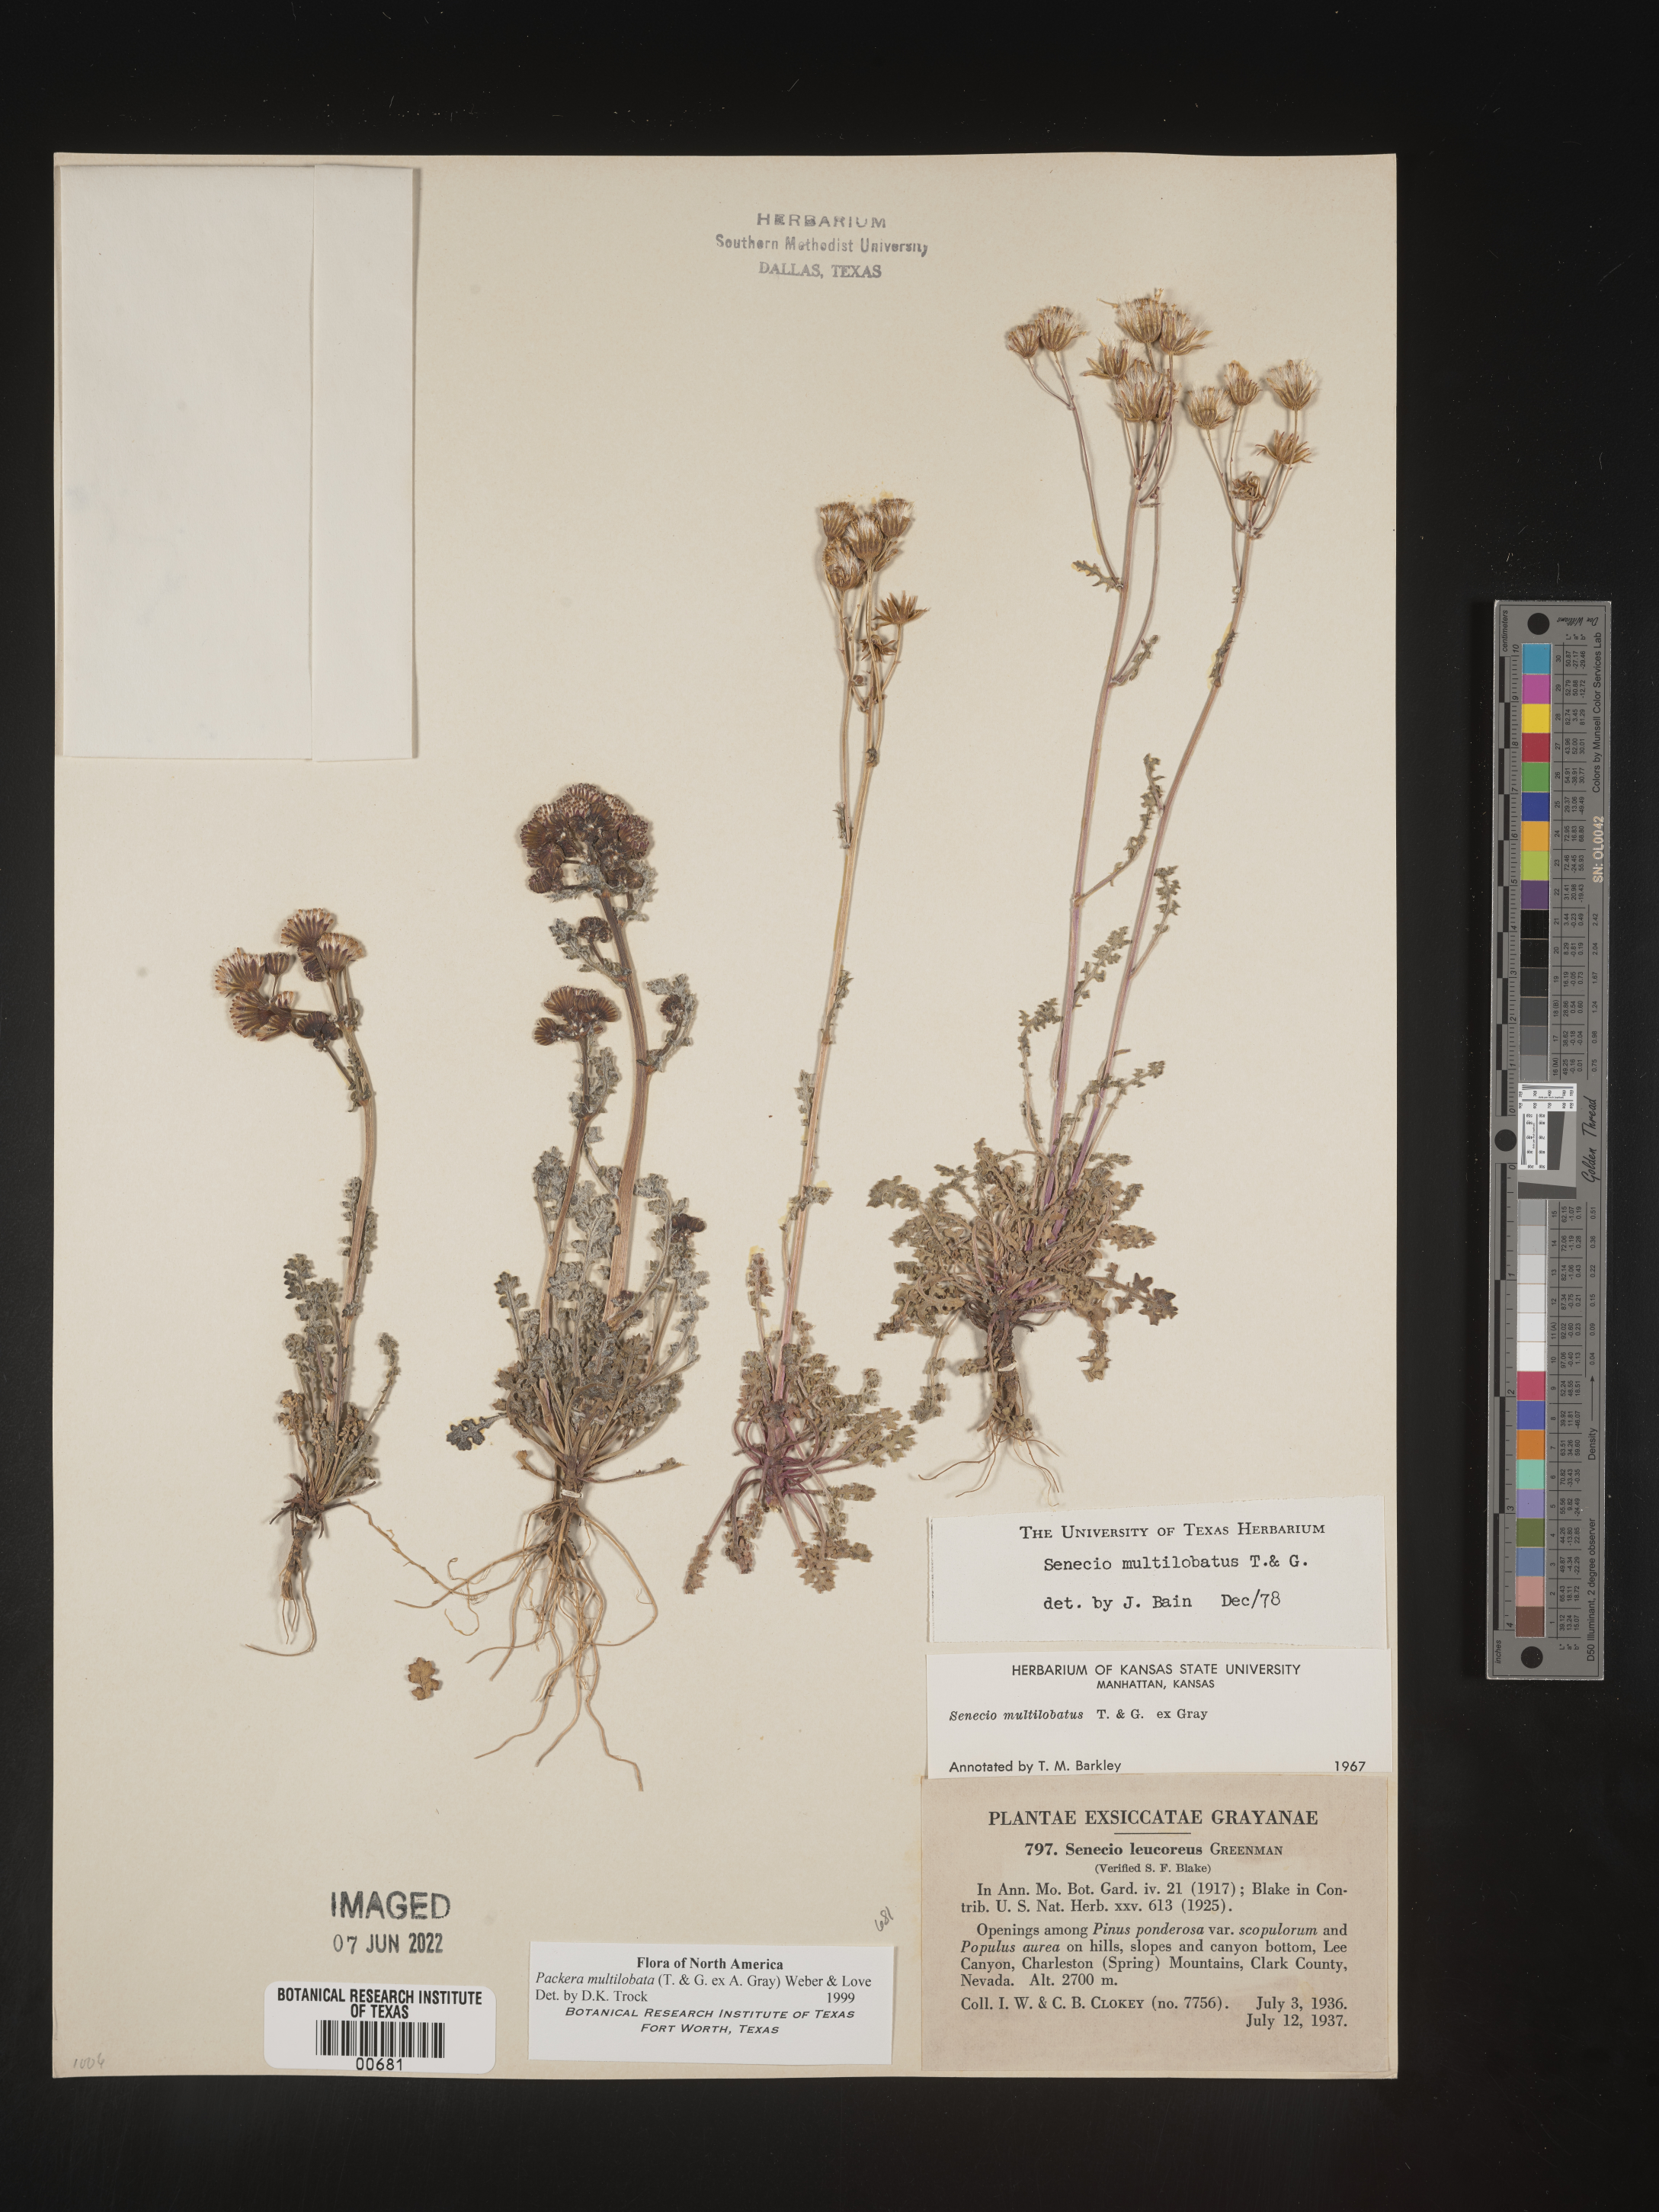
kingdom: Plantae
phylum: Tracheophyta
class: Magnoliopsida
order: Asterales
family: Asteraceae
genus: Packera
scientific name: Packera multilobata
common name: Lobe-leaf groundsel
